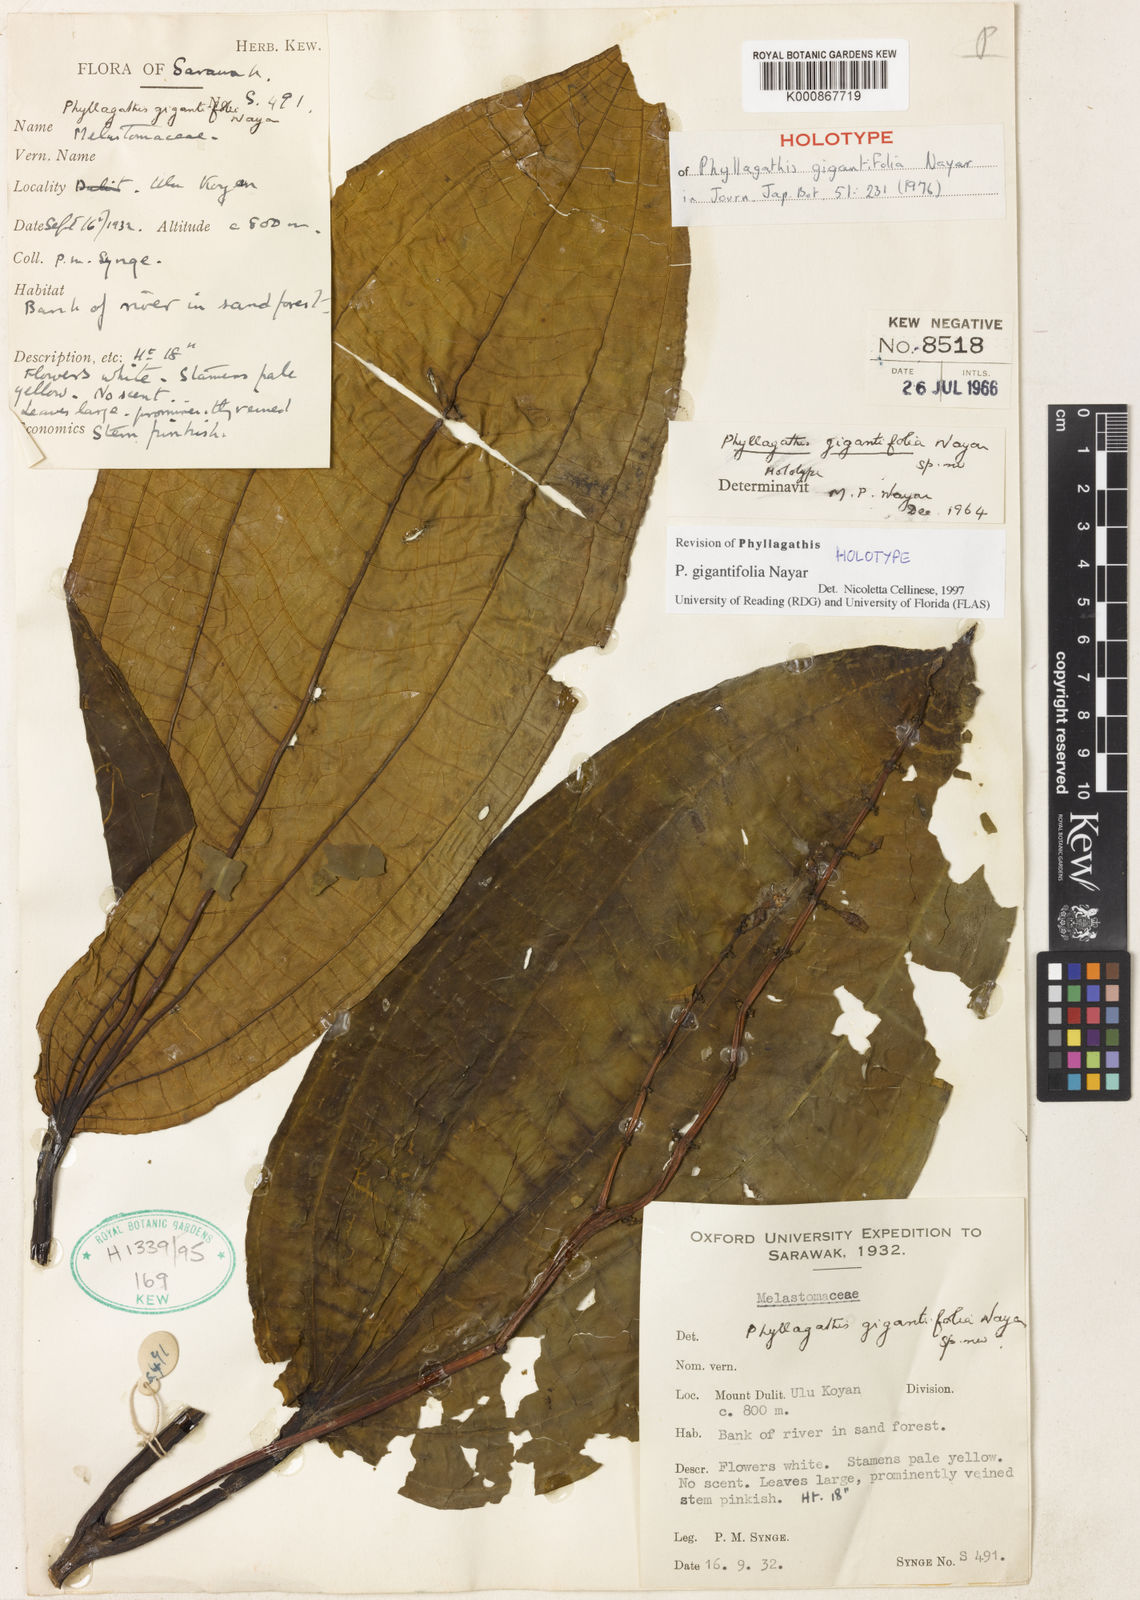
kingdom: Plantae
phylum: Tracheophyta
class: Magnoliopsida
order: Myrtales
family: Melastomataceae
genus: Phyllagathis
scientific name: Phyllagathis gigantifolia
